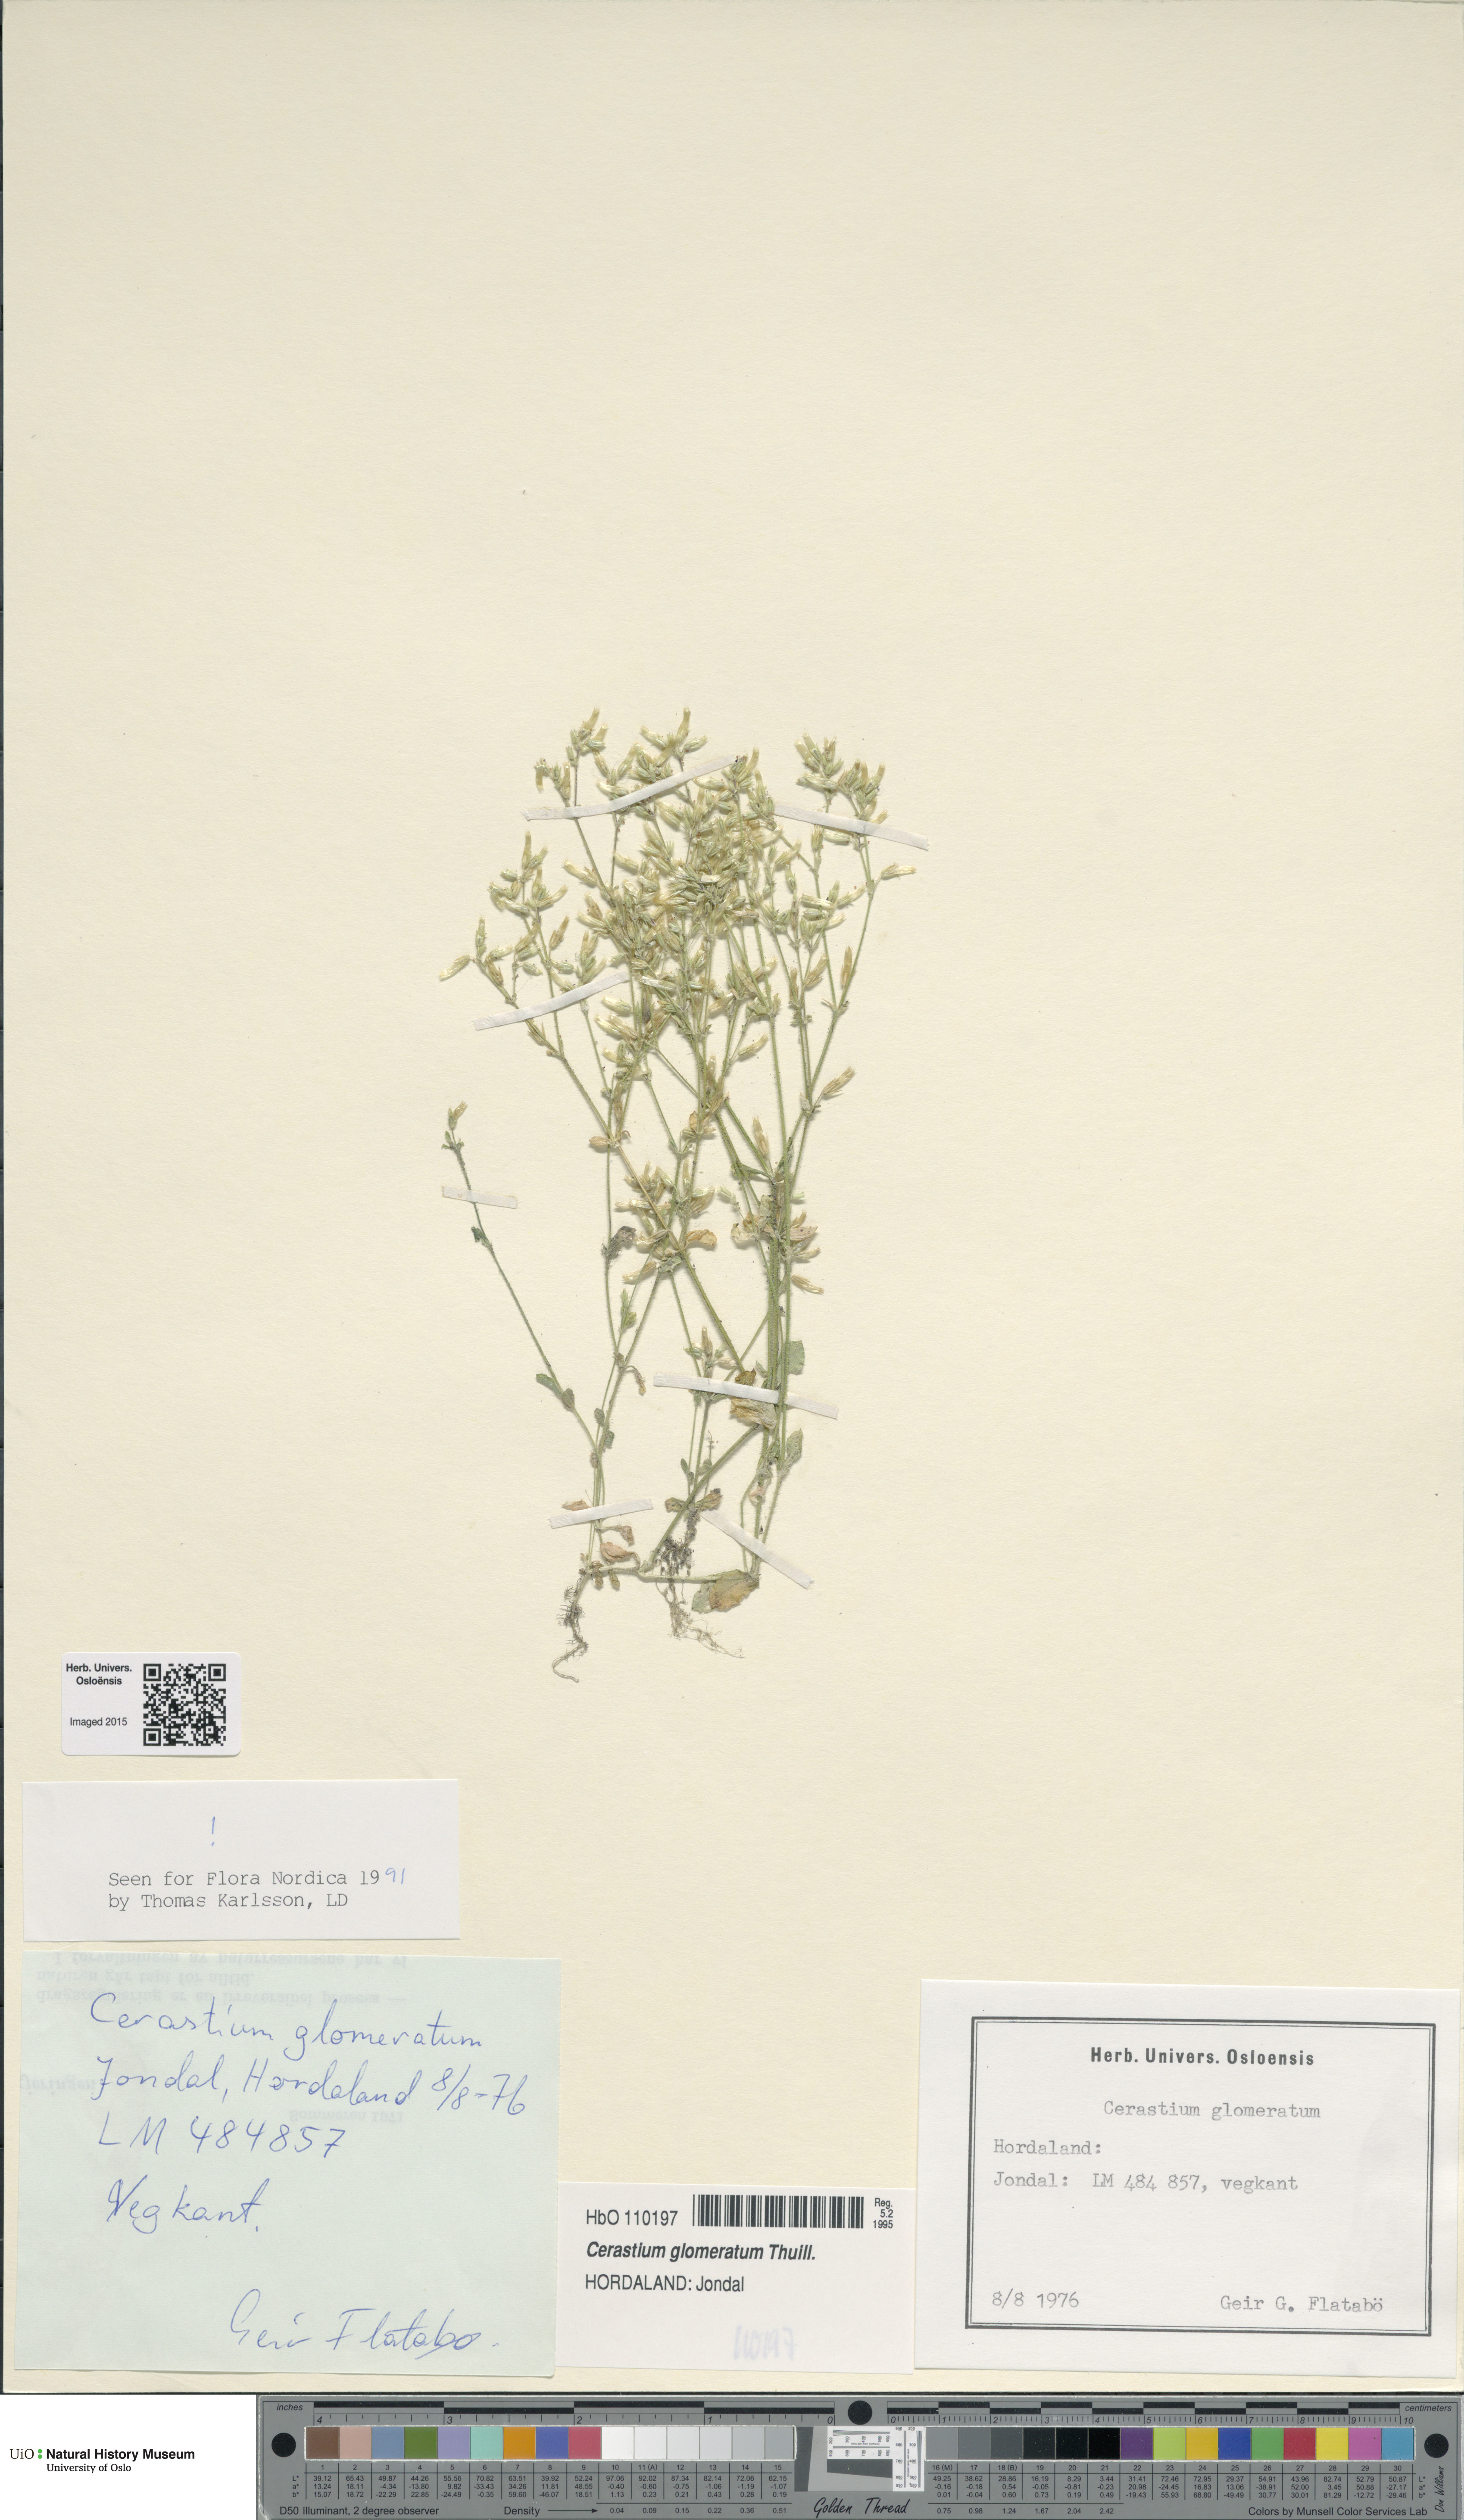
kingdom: Plantae
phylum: Tracheophyta
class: Magnoliopsida
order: Caryophyllales
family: Caryophyllaceae
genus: Cerastium
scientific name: Cerastium glomeratum
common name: Sticky chickweed
